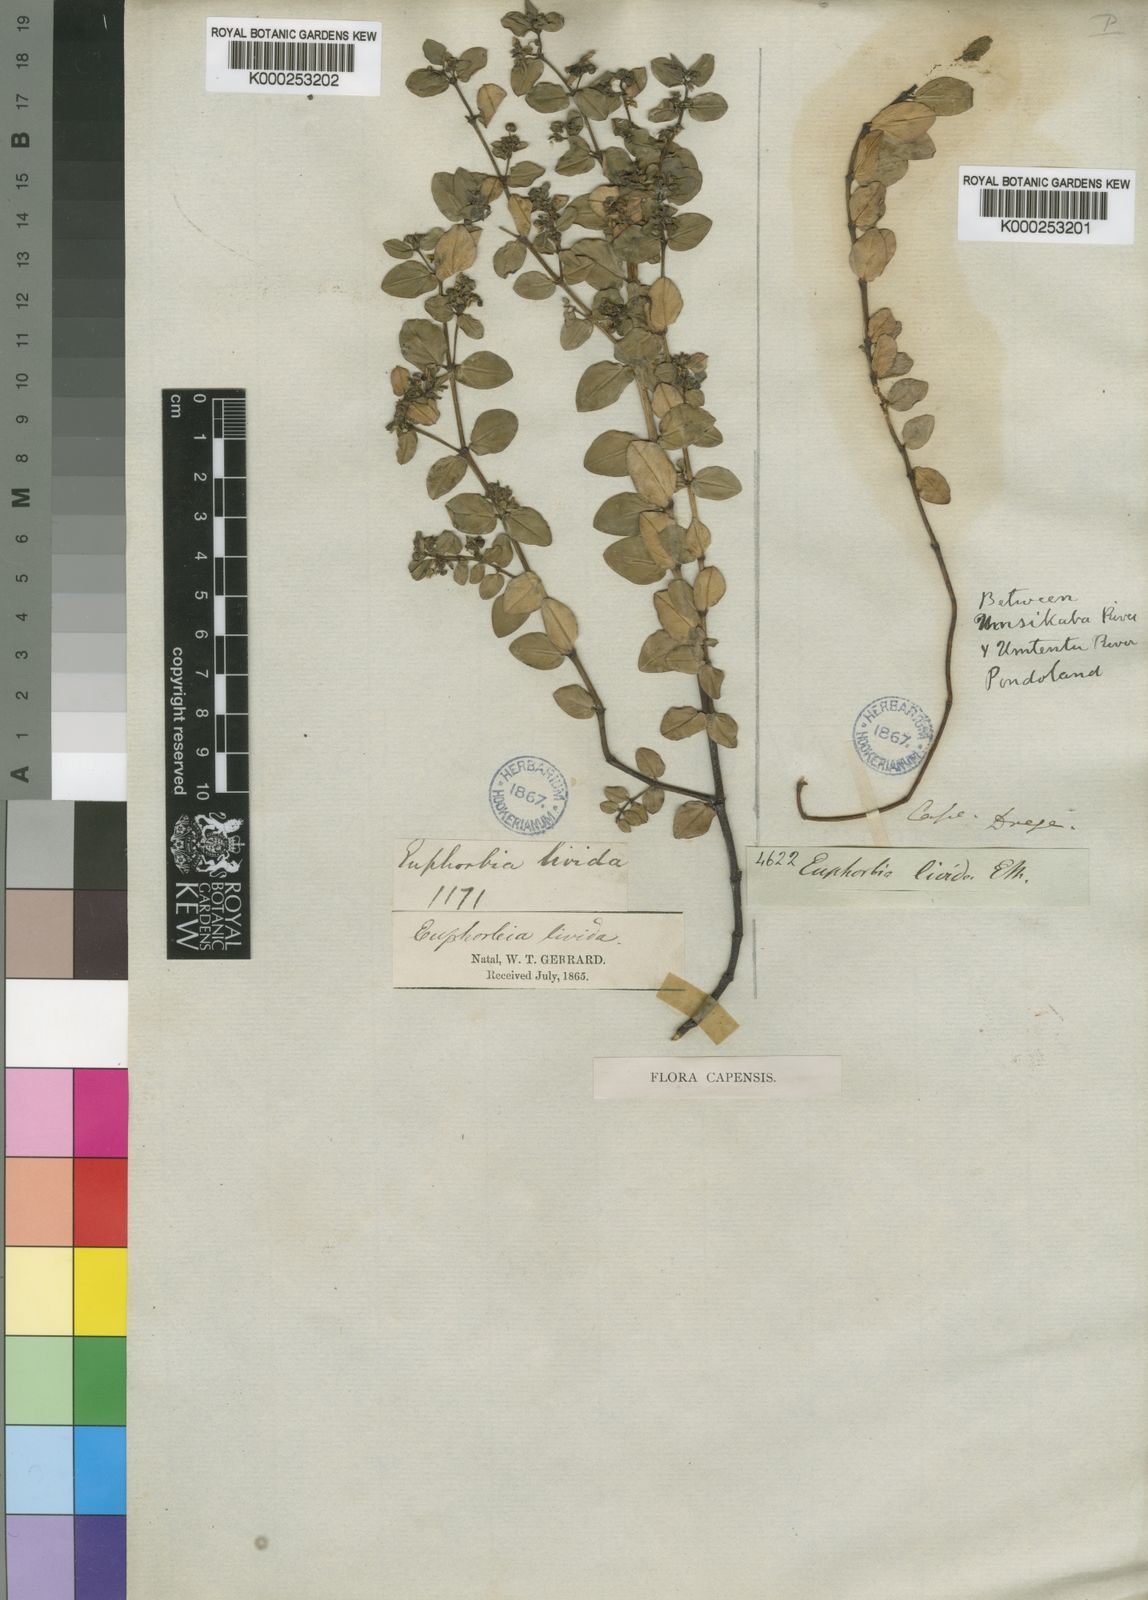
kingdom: Plantae
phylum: Tracheophyta
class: Magnoliopsida
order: Malpighiales
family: Euphorbiaceae
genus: Euphorbia
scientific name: Euphorbia
